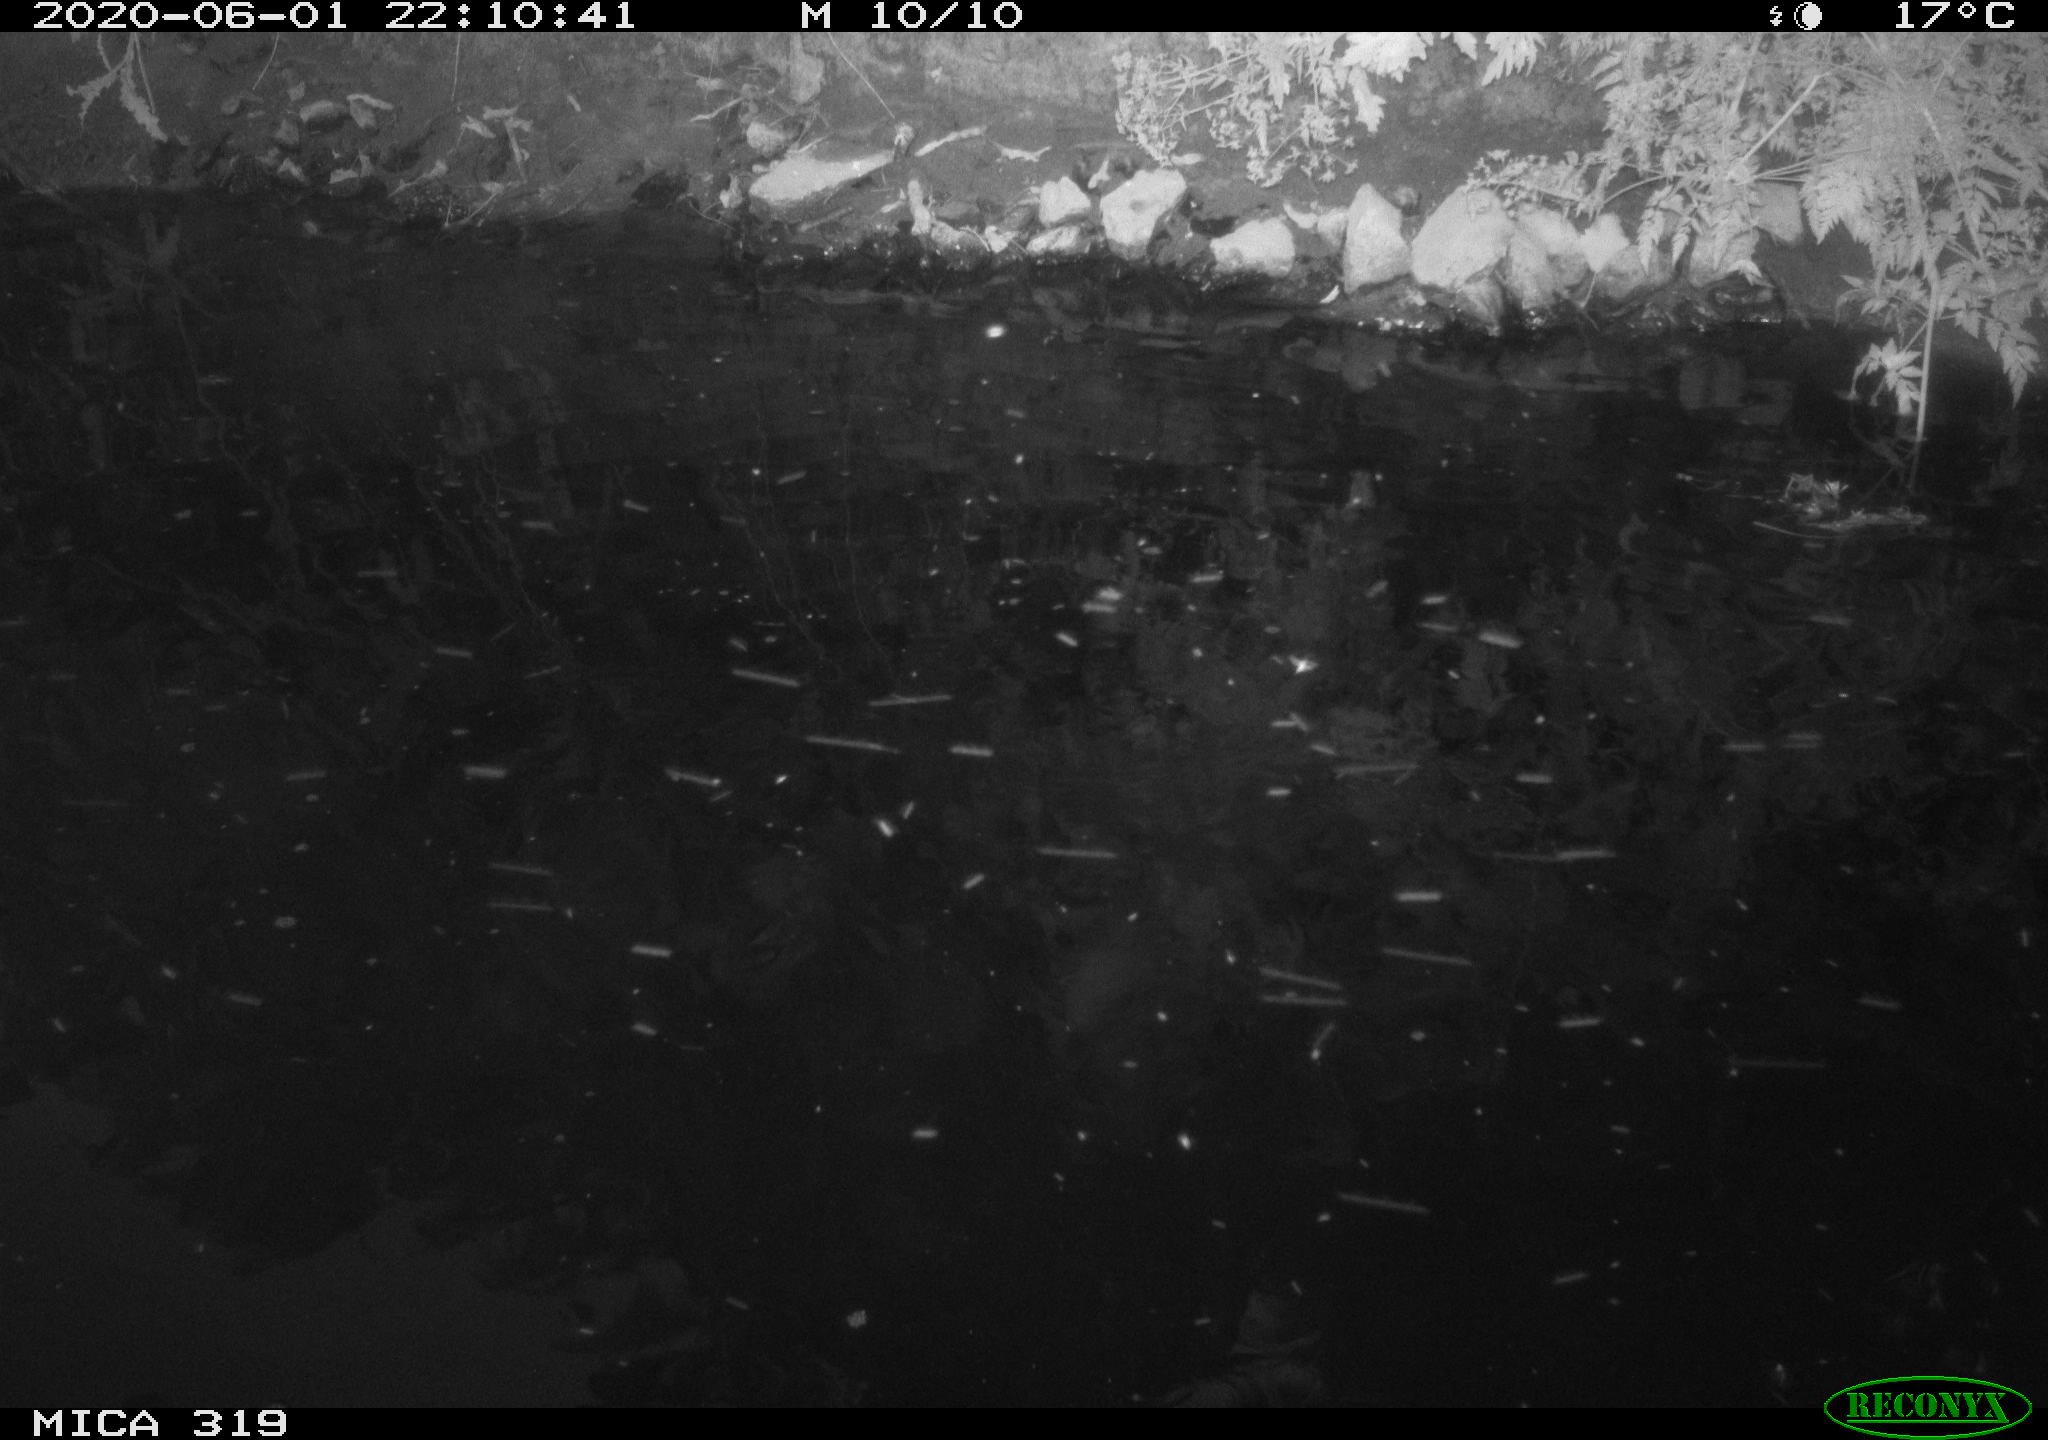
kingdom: Animalia
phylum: Chordata
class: Aves
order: Anseriformes
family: Anatidae
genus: Anas
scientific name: Anas platyrhynchos
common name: Mallard
